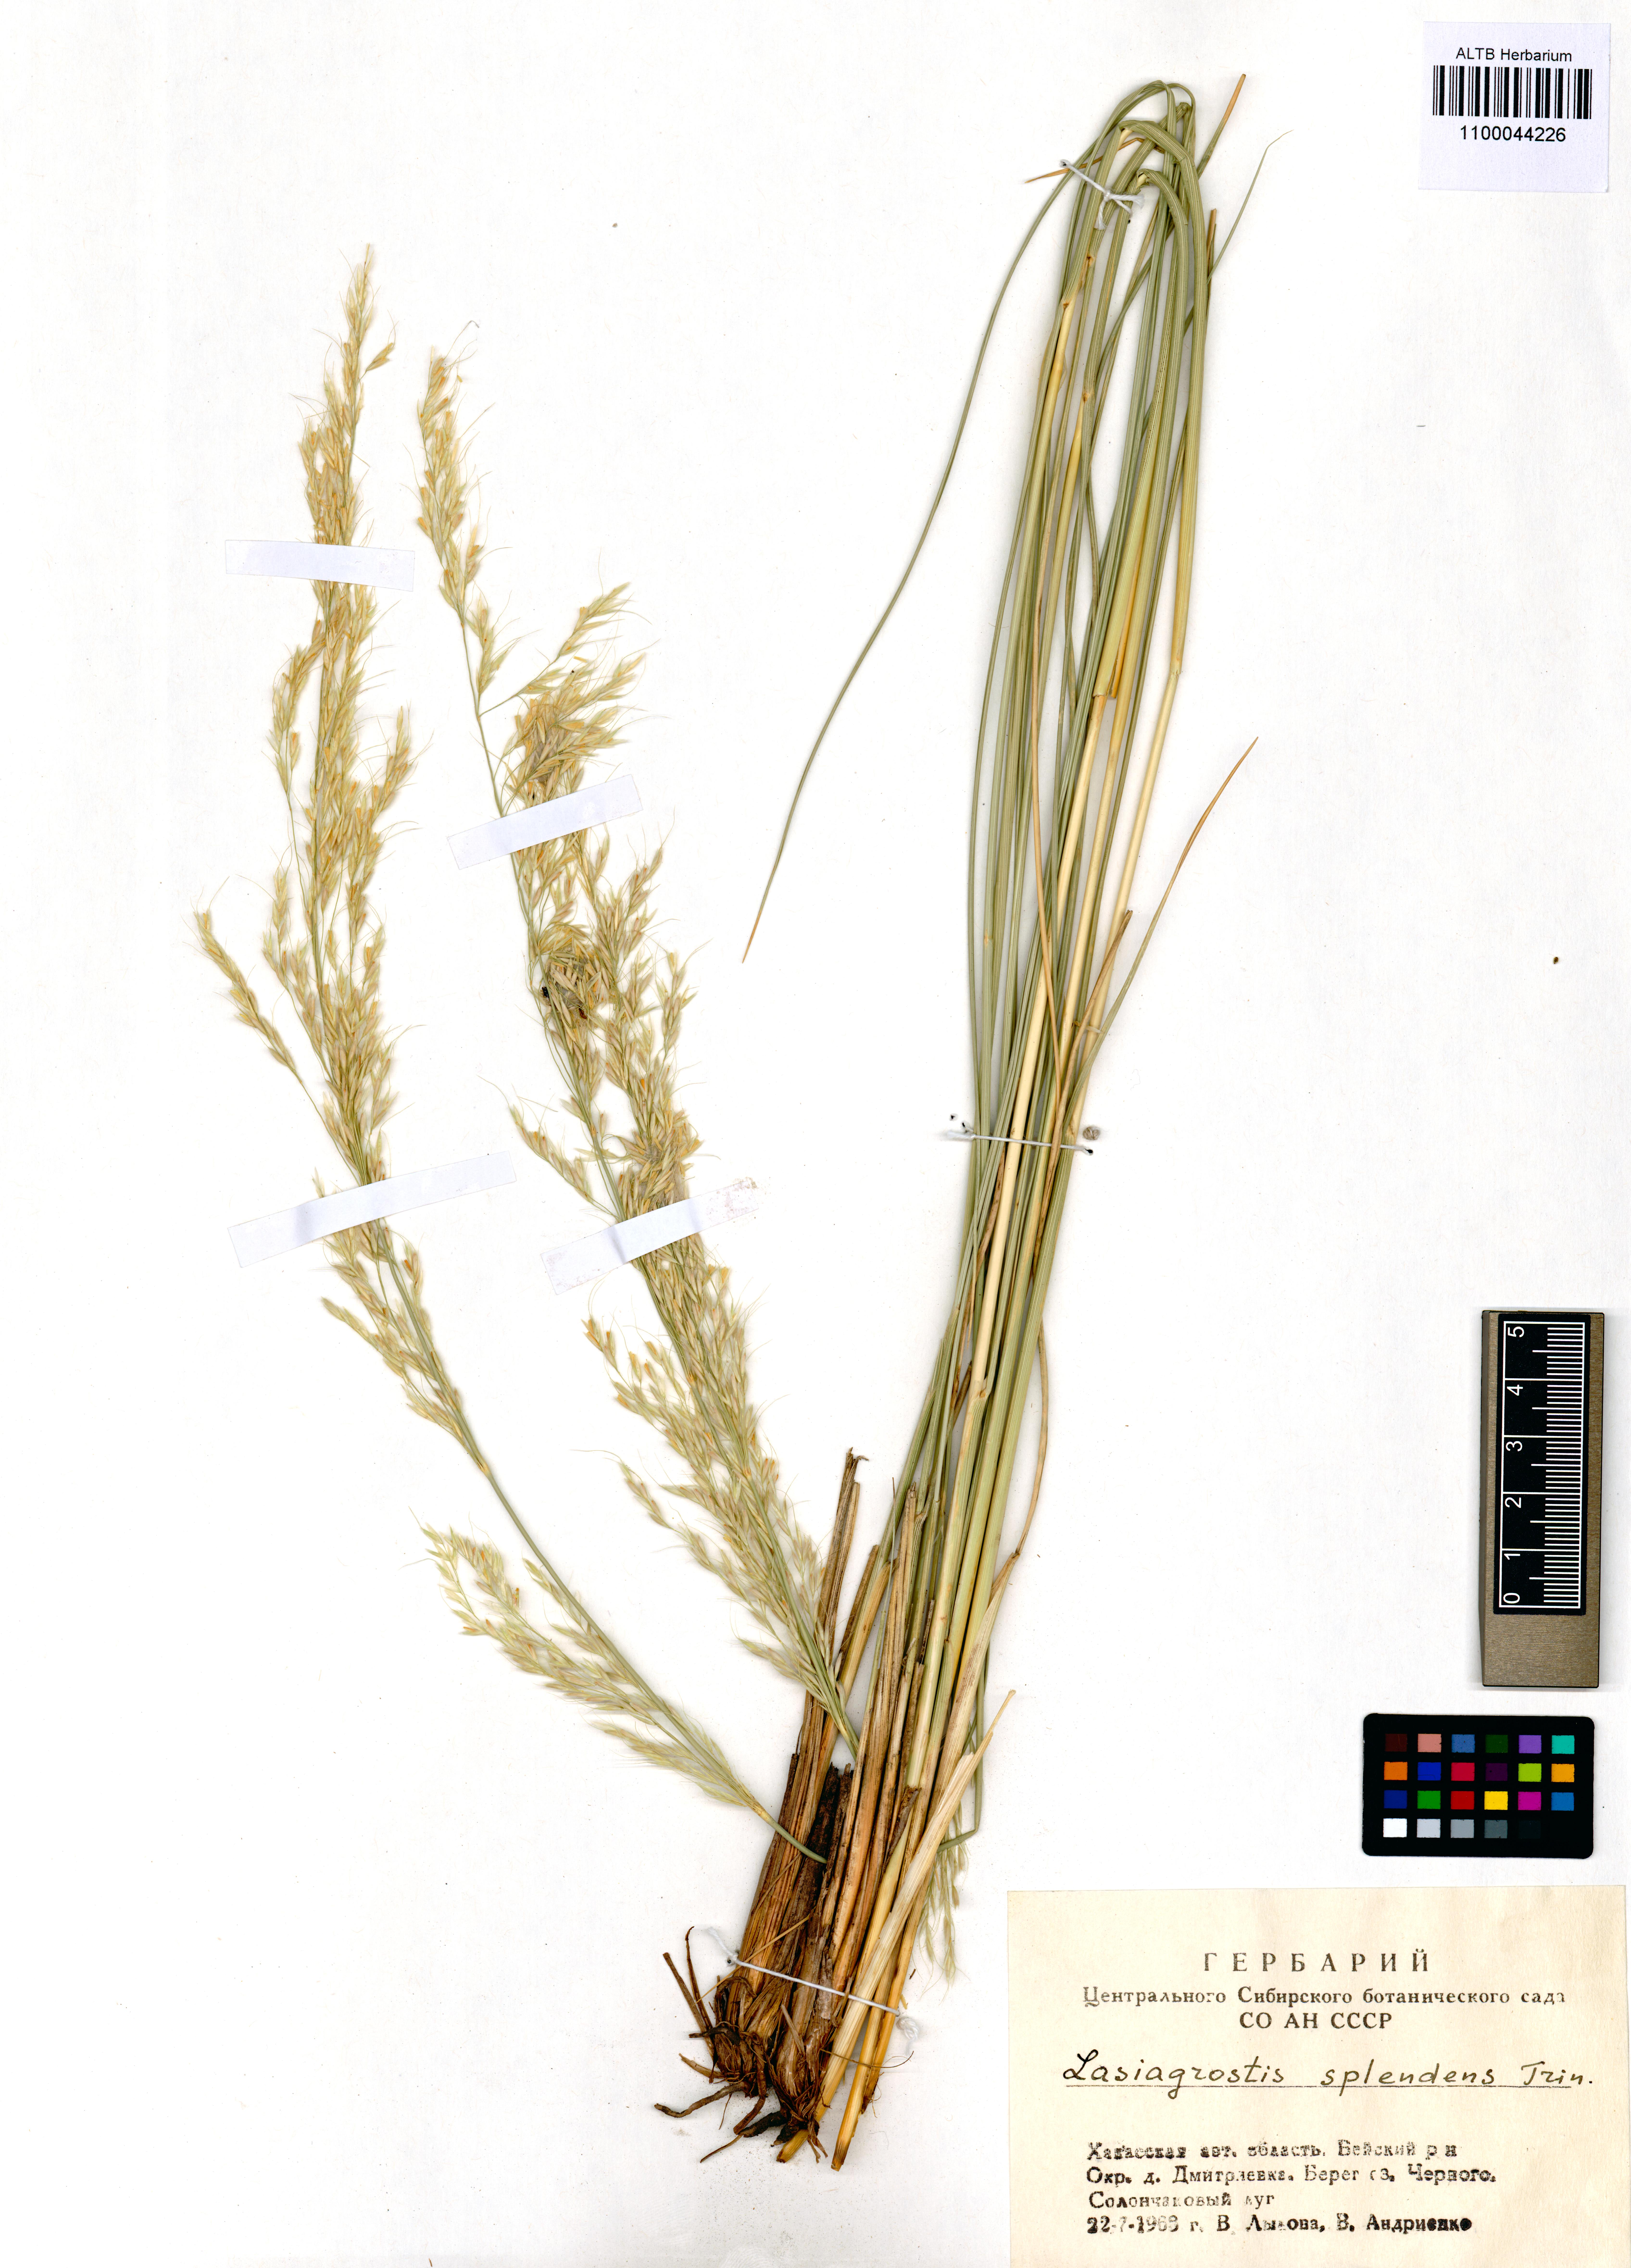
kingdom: Plantae
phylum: Tracheophyta
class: Liliopsida
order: Poales
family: Poaceae
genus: Neotrinia
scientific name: Neotrinia splendens
